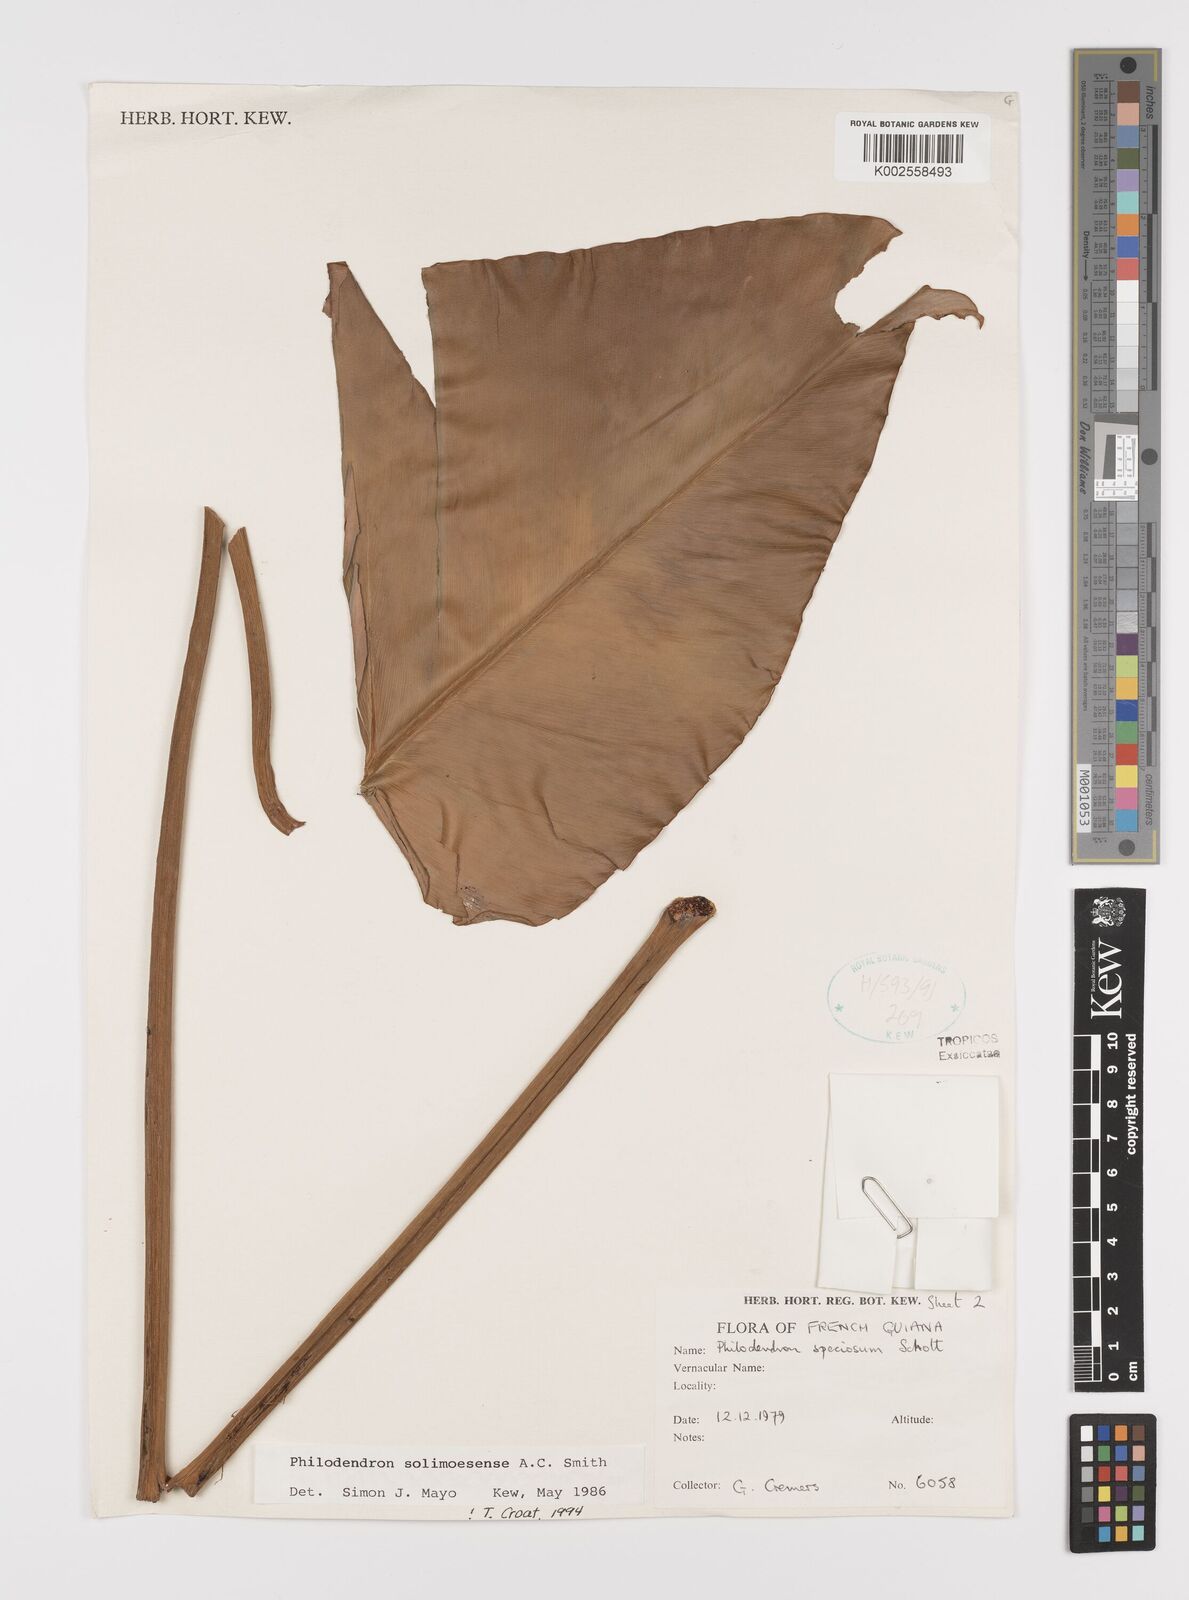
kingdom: Plantae
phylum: Tracheophyta
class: Liliopsida
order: Alismatales
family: Araceae
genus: Thaumatophyllum
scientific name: Thaumatophyllum solimoesense
